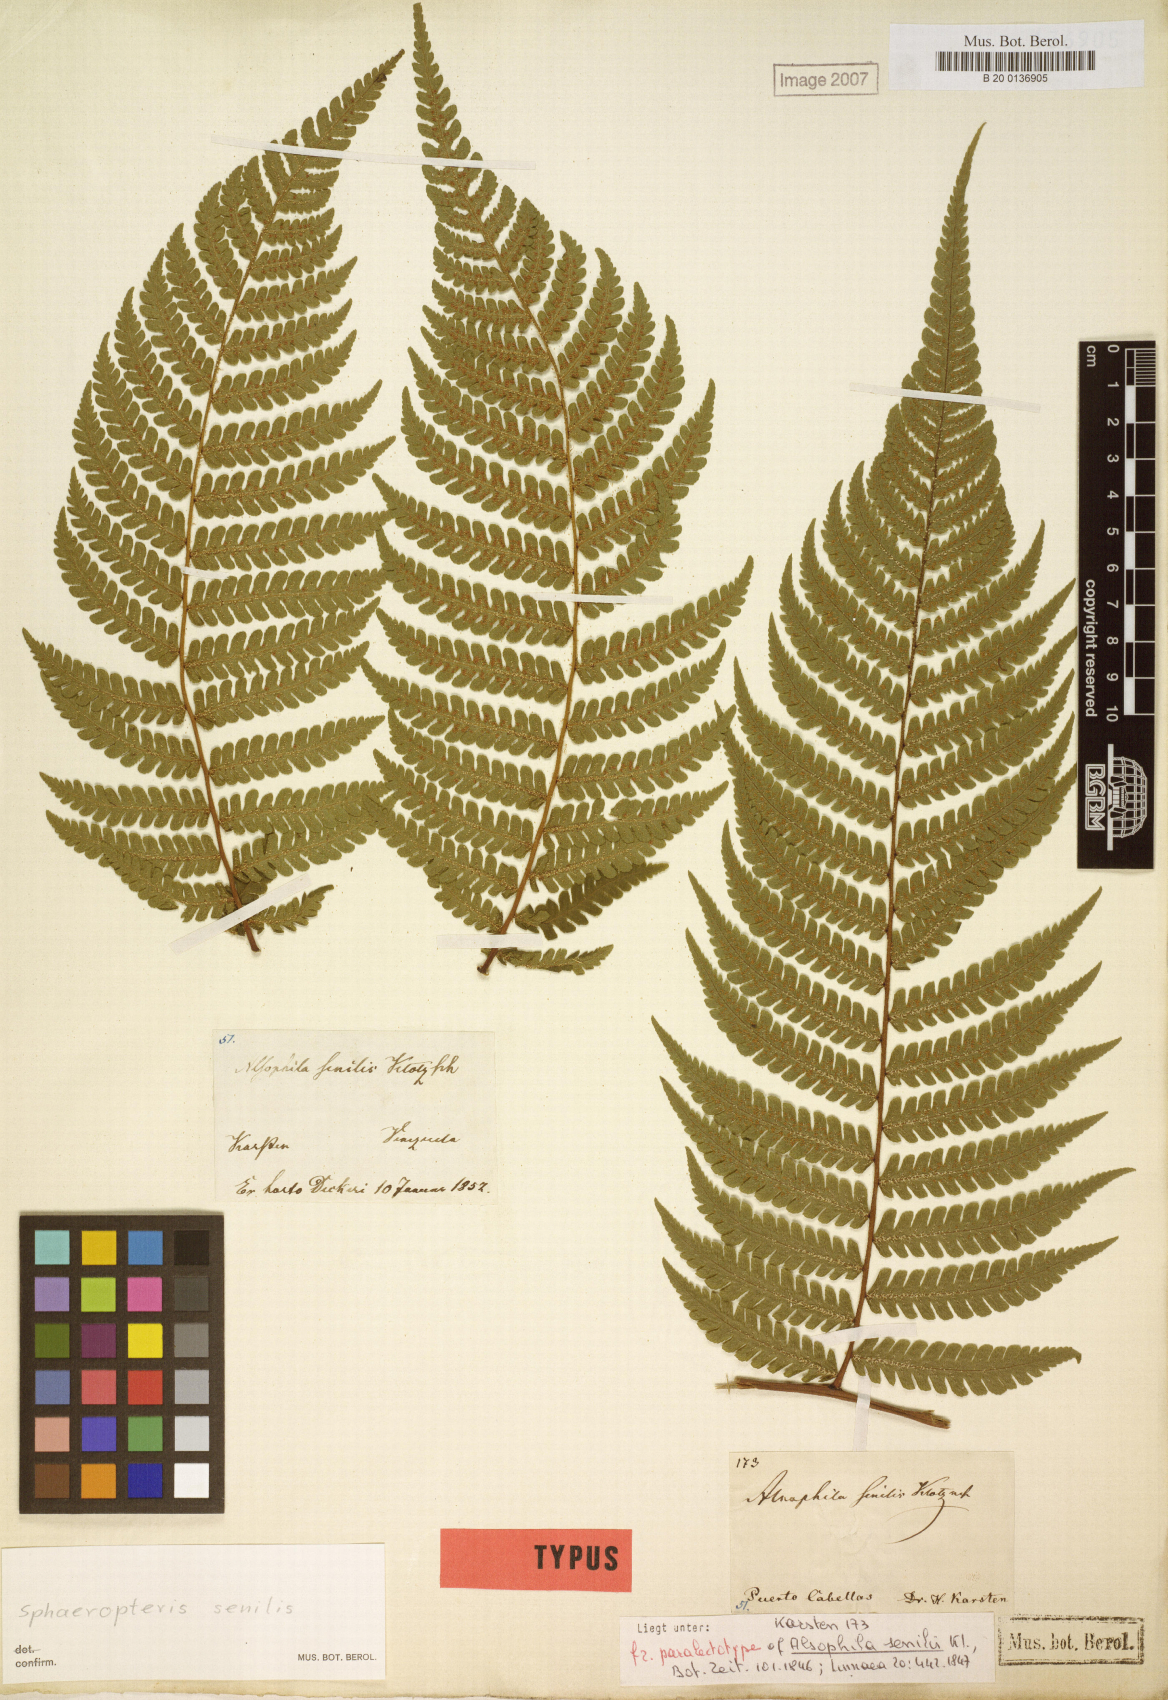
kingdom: Plantae
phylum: Tracheophyta
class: Polypodiopsida
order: Cyatheales
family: Cyatheaceae
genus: Sphaeropteris
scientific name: Sphaeropteris senilis
